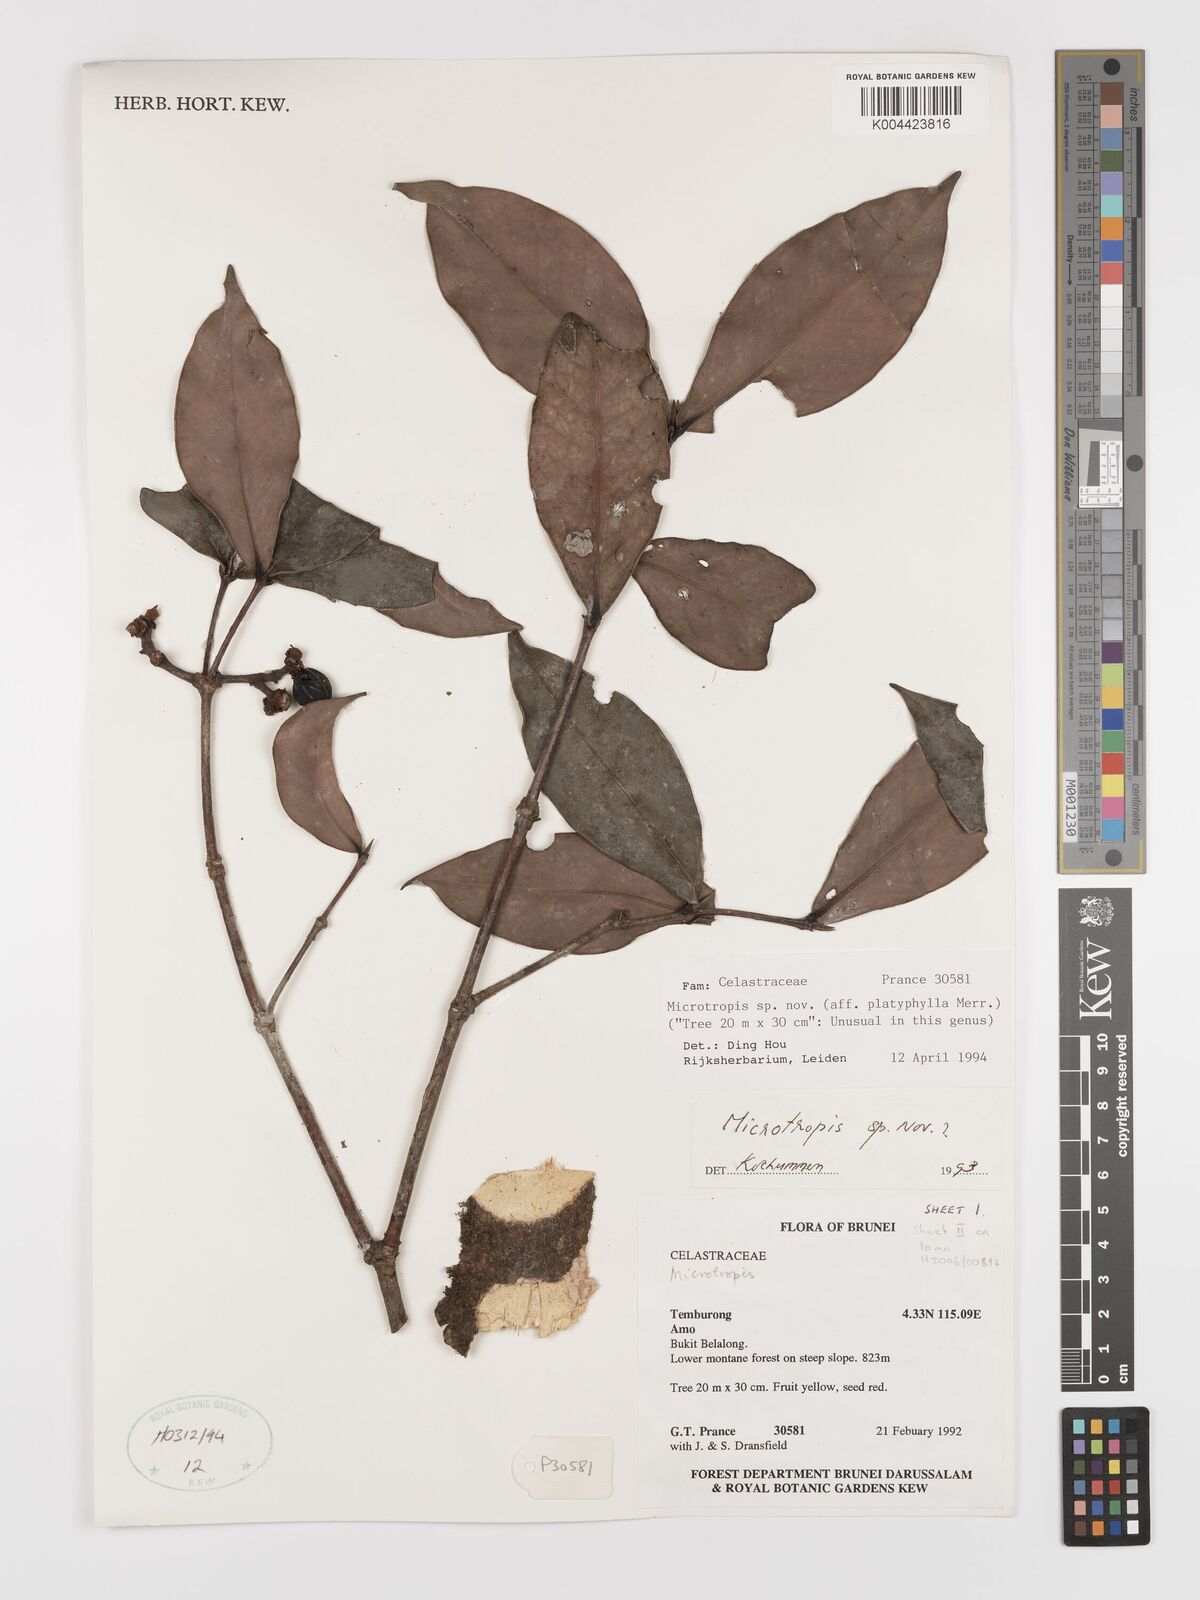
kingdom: Plantae
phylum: Tracheophyta
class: Magnoliopsida
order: Celastrales
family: Celastraceae
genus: Microtropis
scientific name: Microtropis platyphylla
